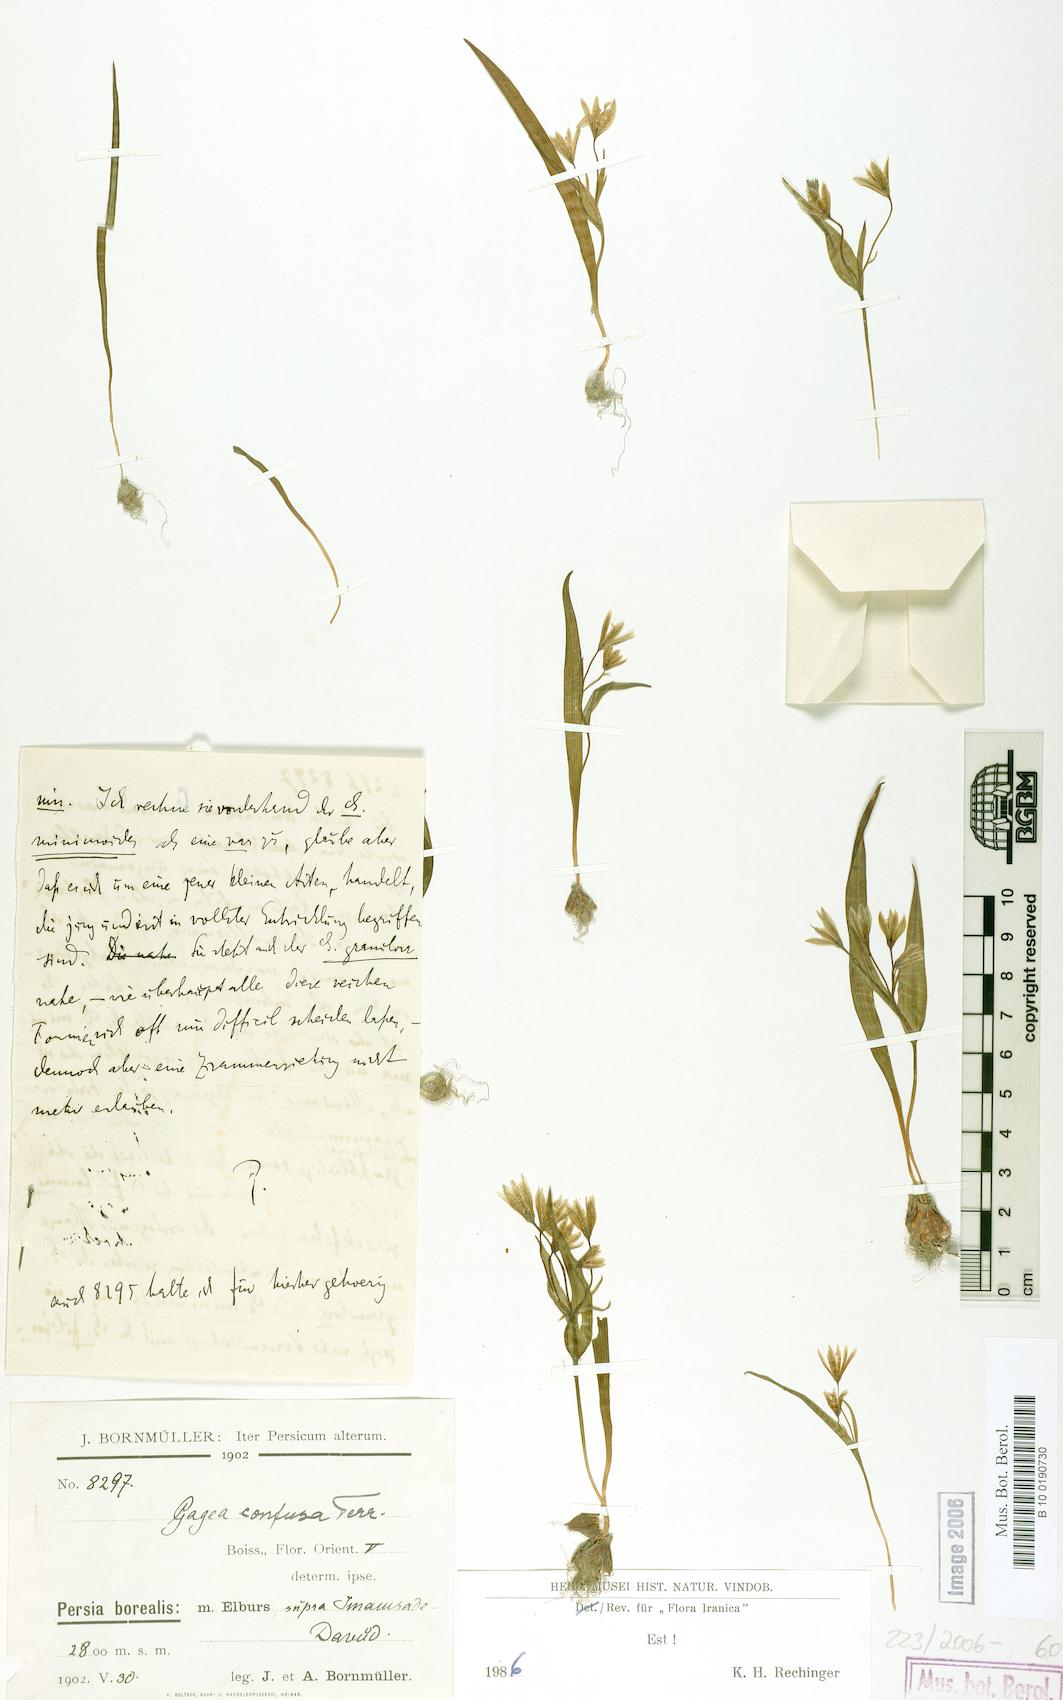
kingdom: Plantae
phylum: Tracheophyta
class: Liliopsida
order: Liliales
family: Liliaceae
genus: Gagea
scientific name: Gagea confusa
